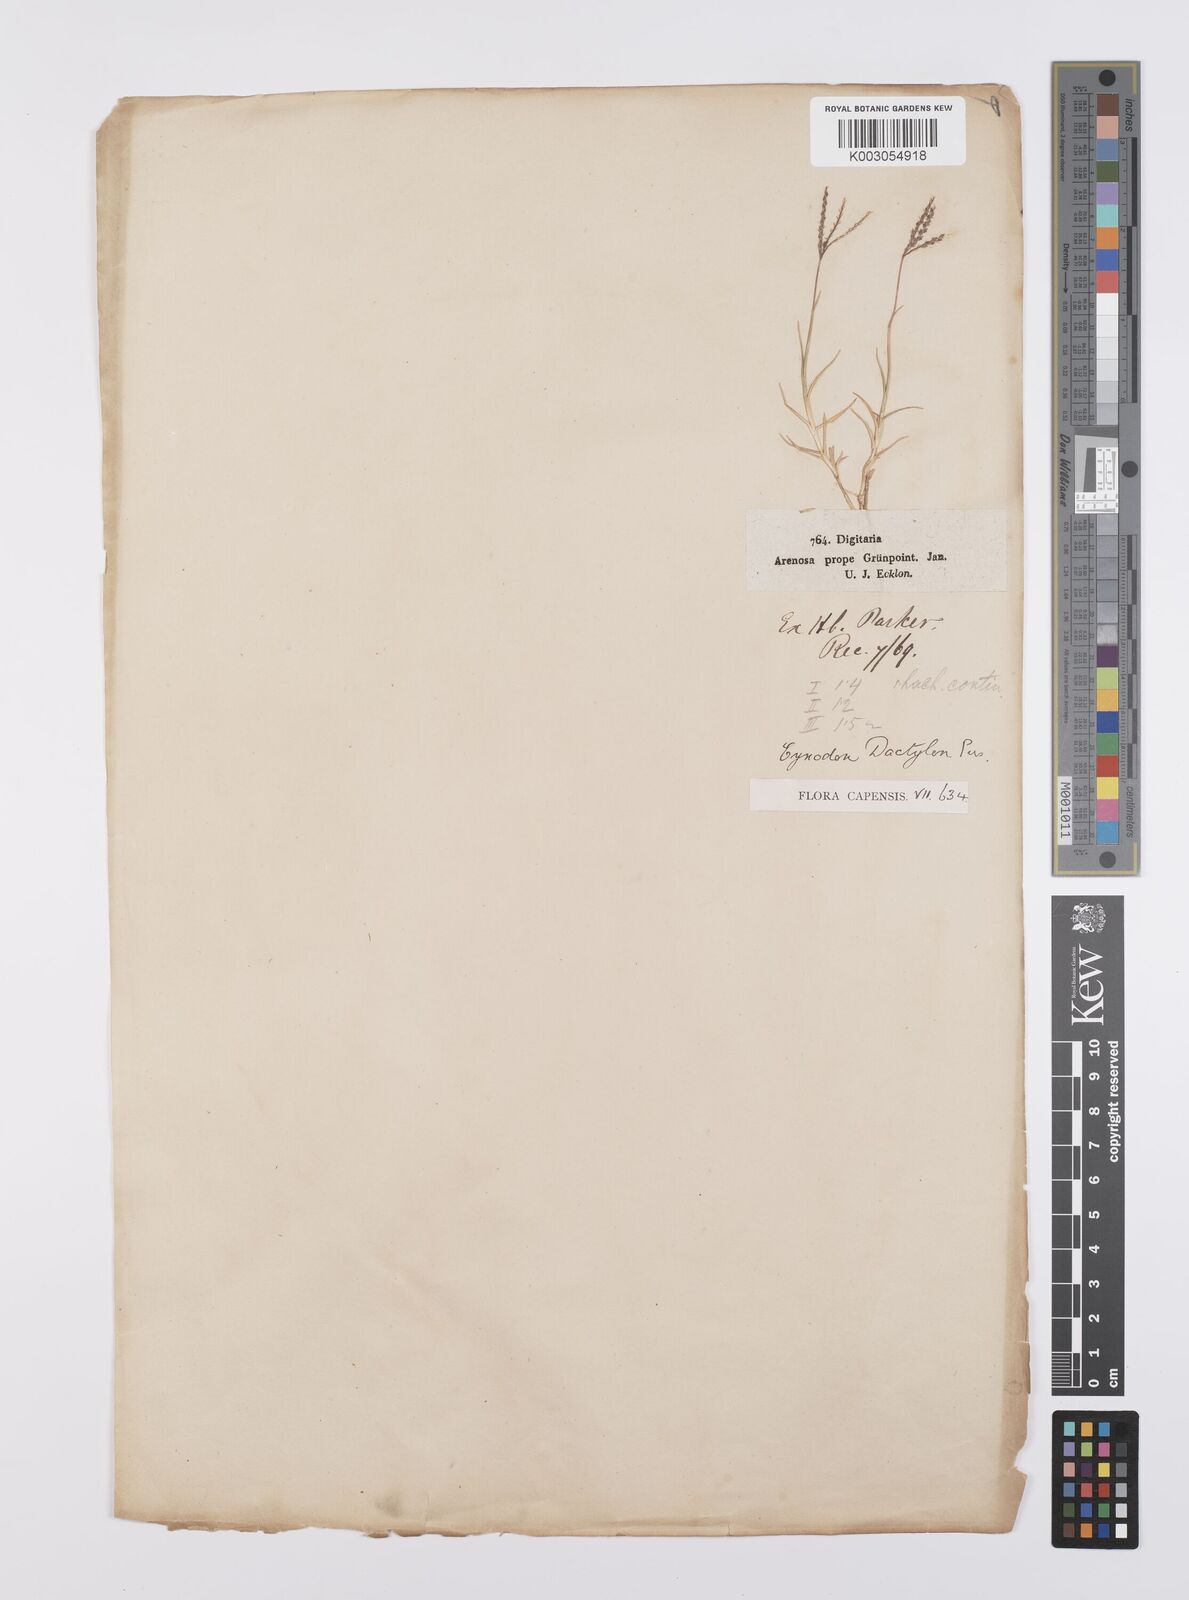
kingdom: Plantae
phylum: Tracheophyta
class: Liliopsida
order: Poales
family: Poaceae
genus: Cynodon
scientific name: Cynodon dactylon
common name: Bermuda grass
